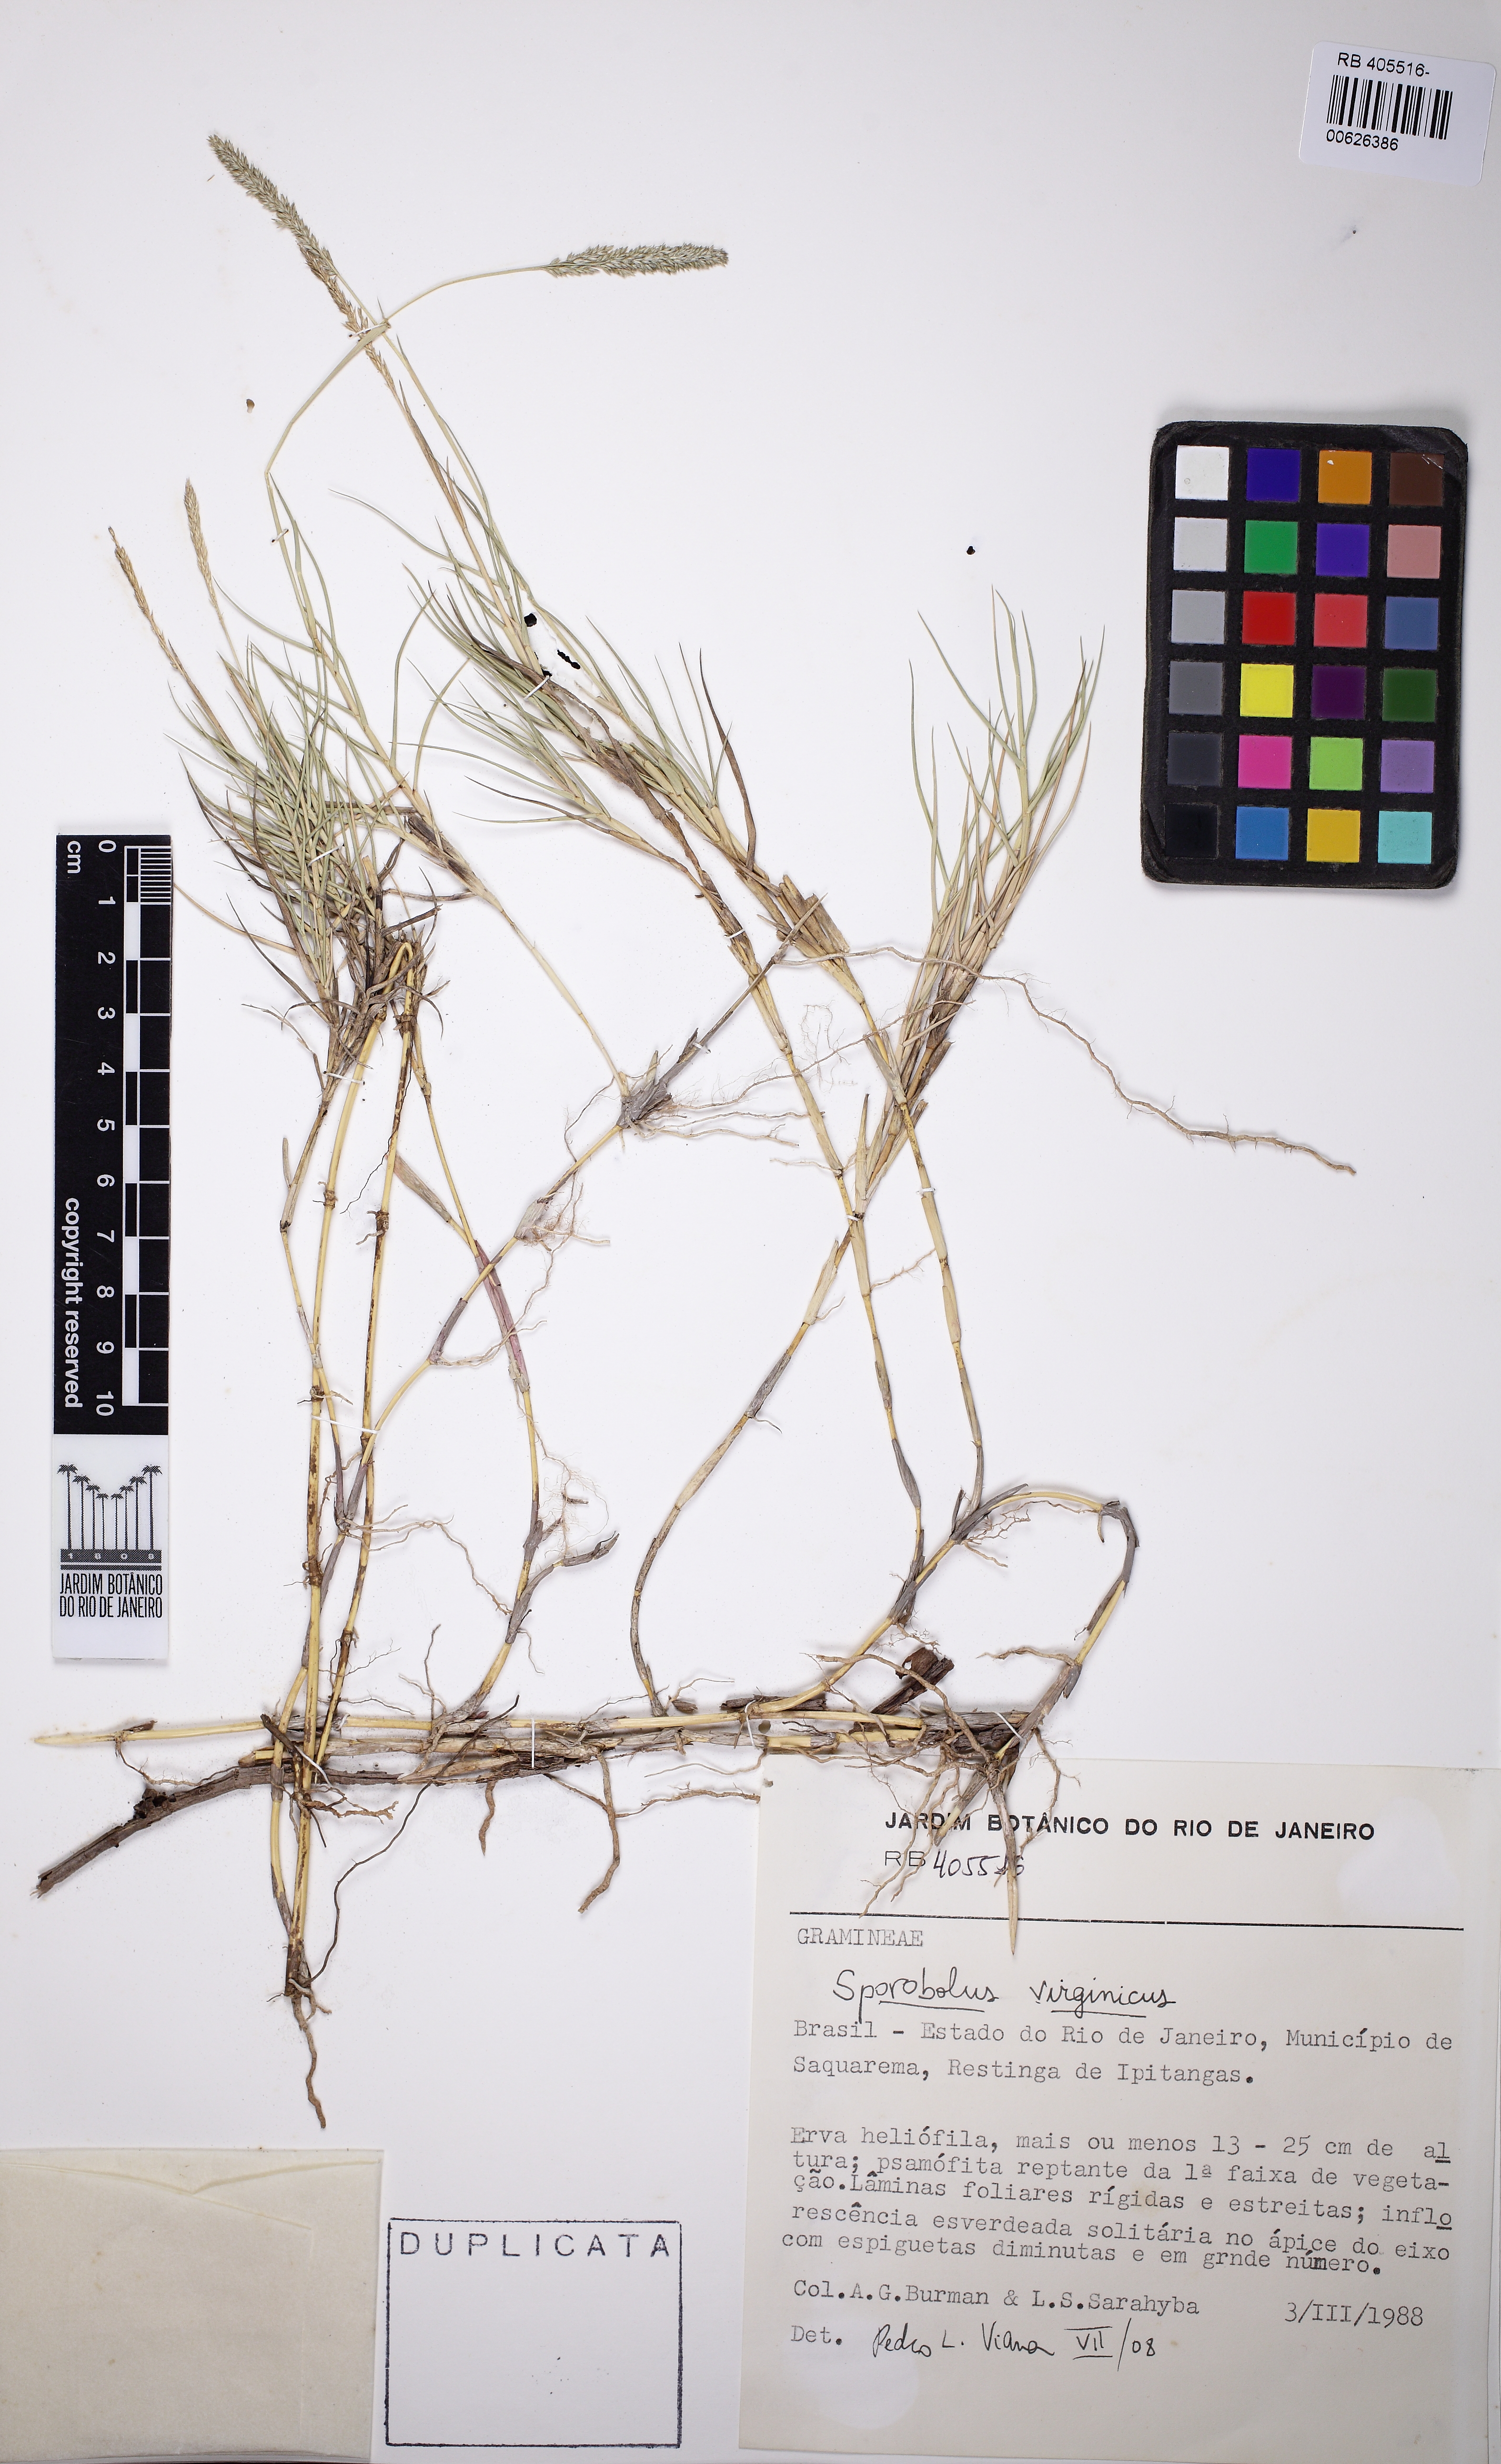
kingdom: Plantae
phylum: Tracheophyta
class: Liliopsida
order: Poales
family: Poaceae
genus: Sporobolus
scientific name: Sporobolus virginicus
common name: Beach dropseed
